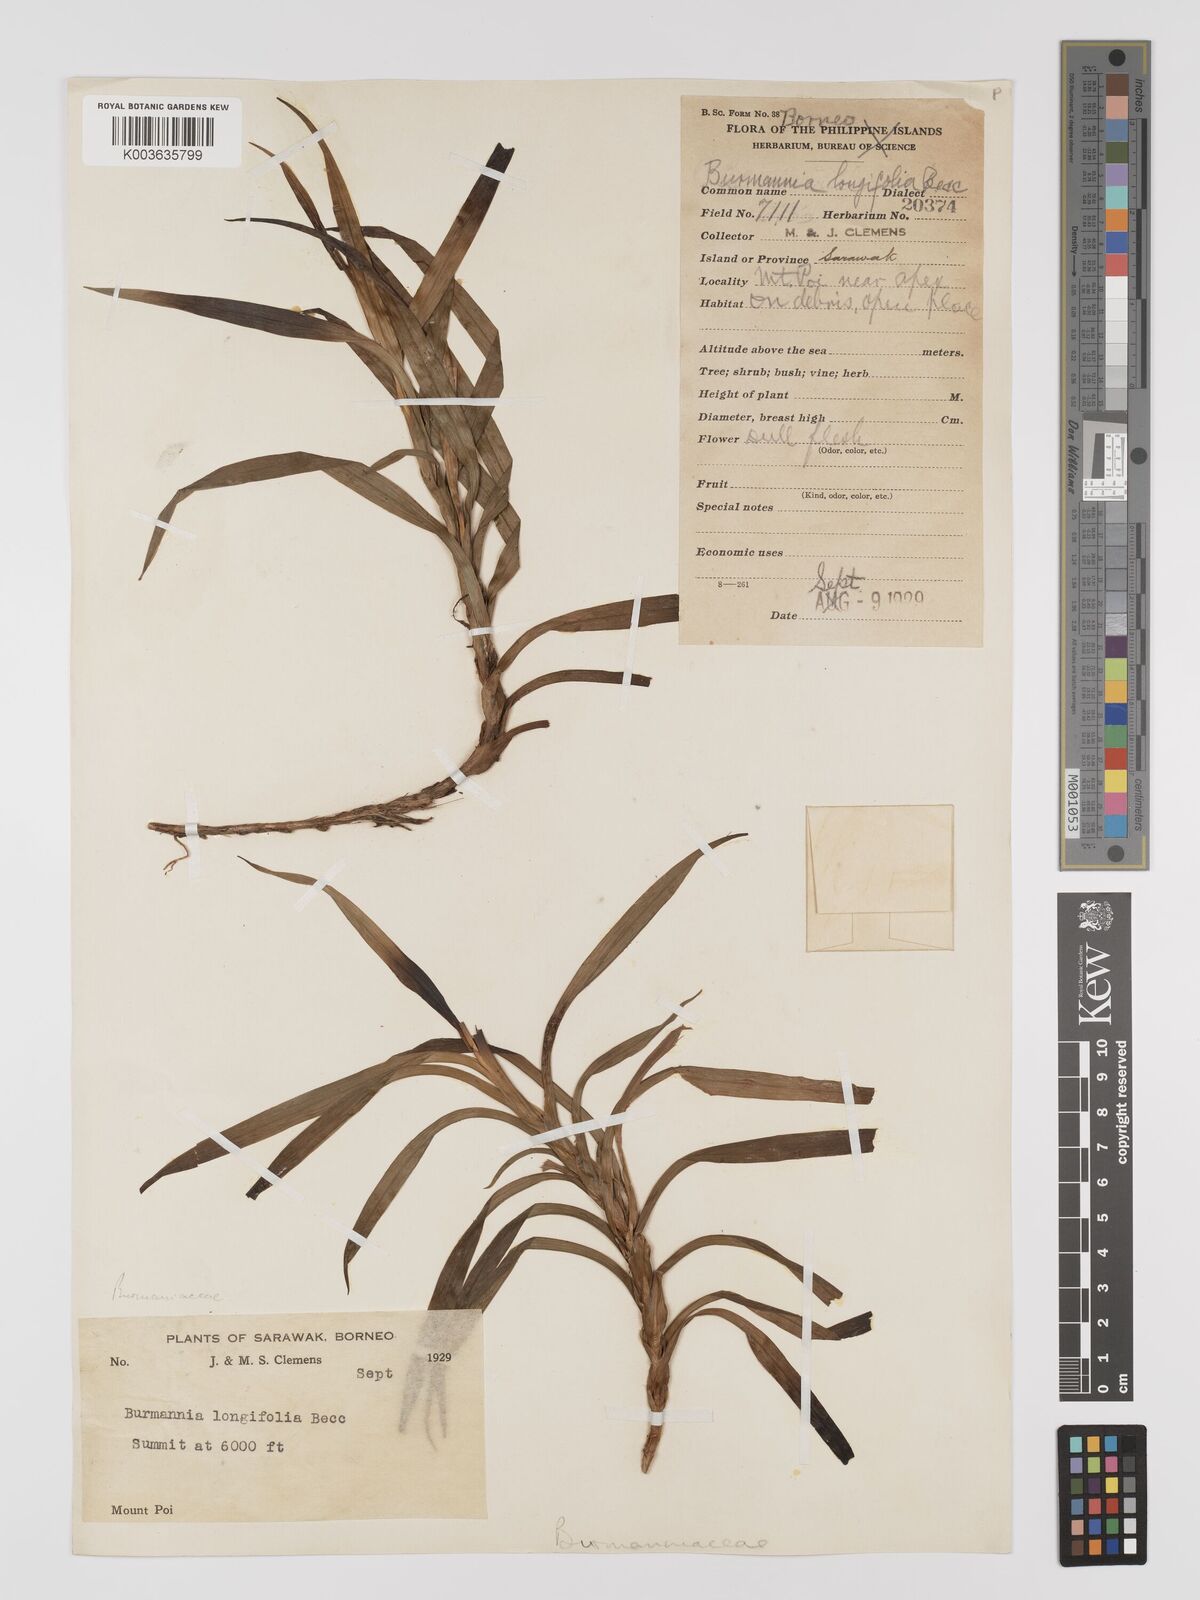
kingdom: Plantae
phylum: Tracheophyta
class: Liliopsida
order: Dioscoreales
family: Burmanniaceae
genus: Burmannia
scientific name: Burmannia longifolia
